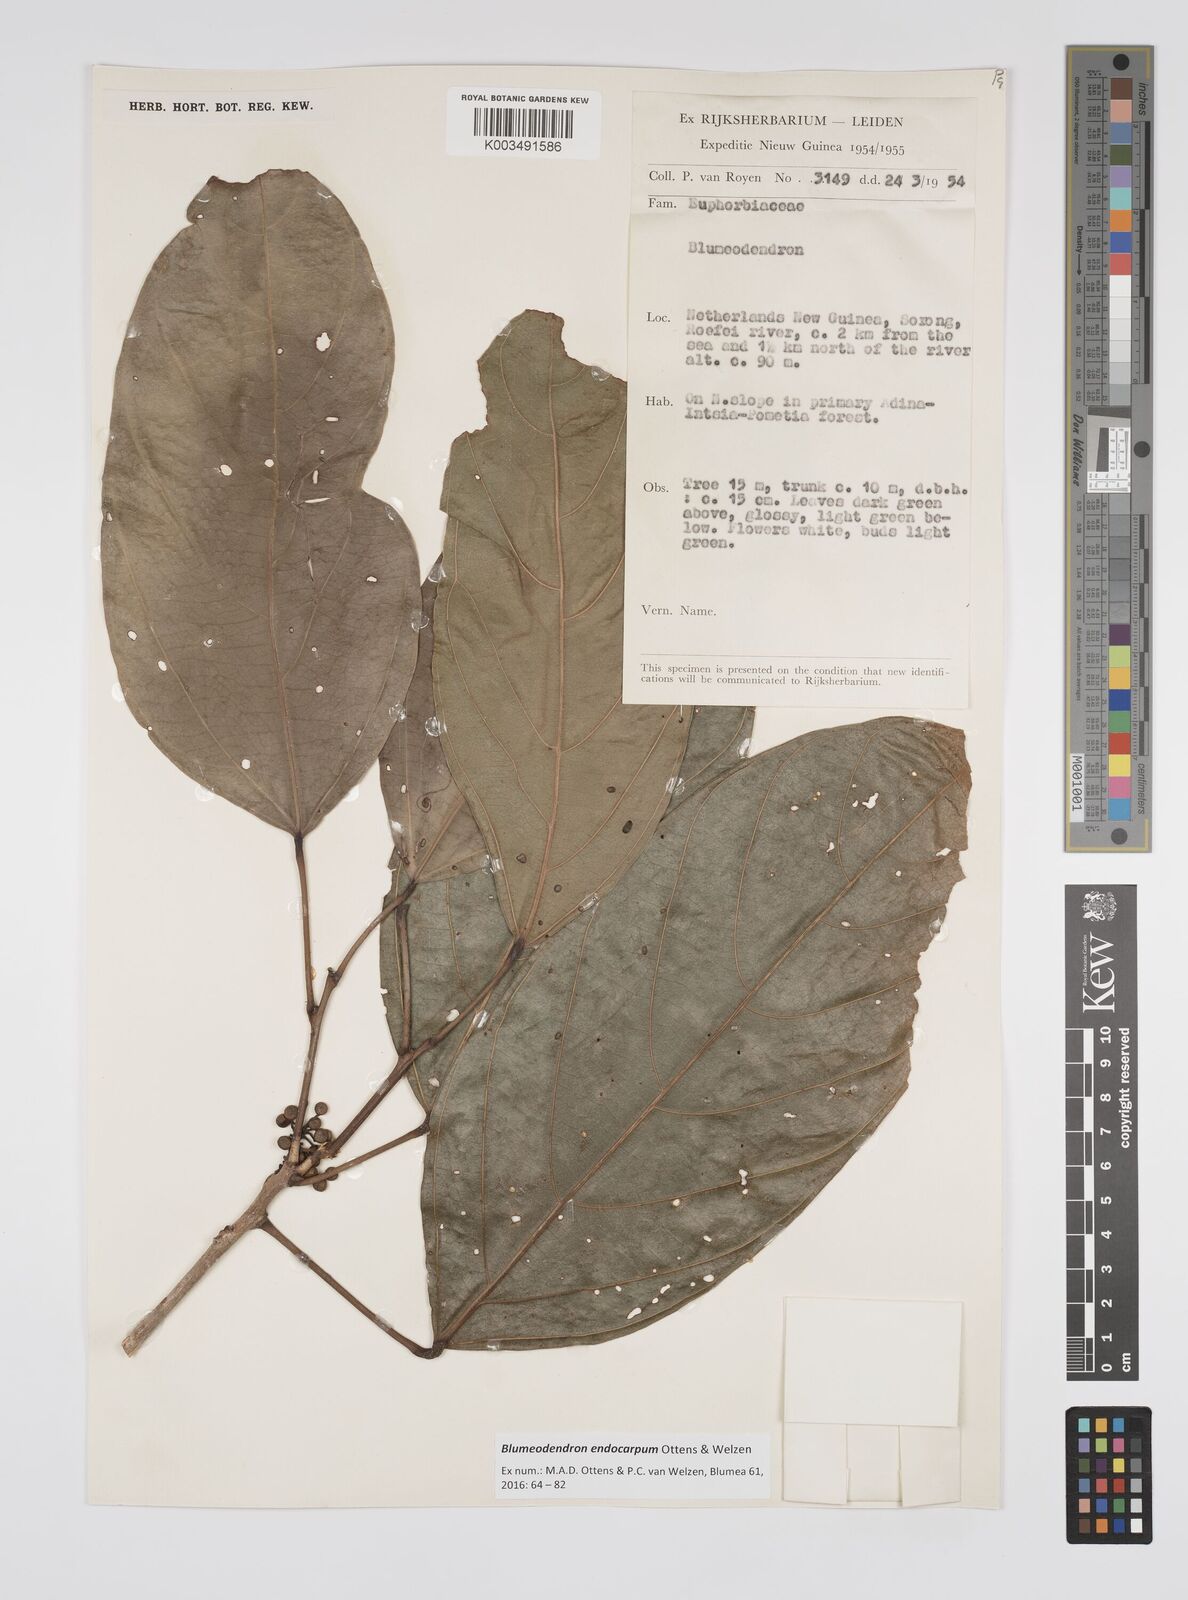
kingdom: Plantae
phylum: Tracheophyta
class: Magnoliopsida
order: Malpighiales
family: Euphorbiaceae
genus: Blumeodendron
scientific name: Blumeodendron endocarpum
